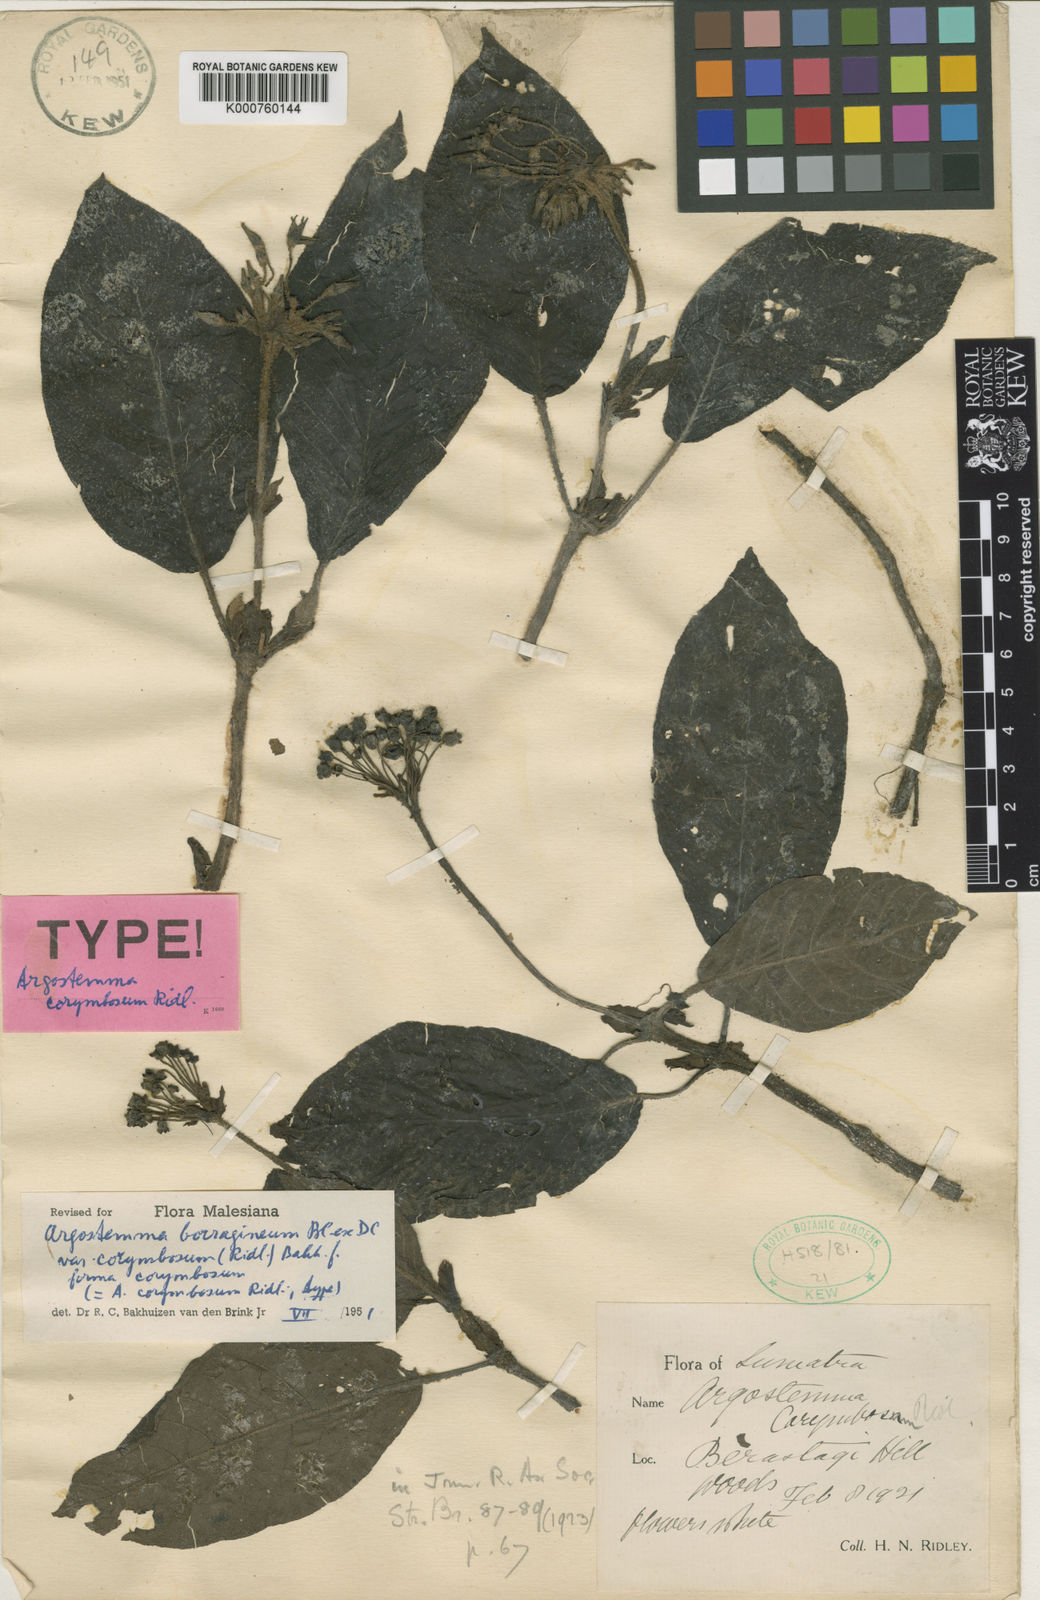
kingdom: Plantae
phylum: Tracheophyta
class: Magnoliopsida
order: Gentianales
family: Rubiaceae
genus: Argostemma
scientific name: Argostemma borragineum
